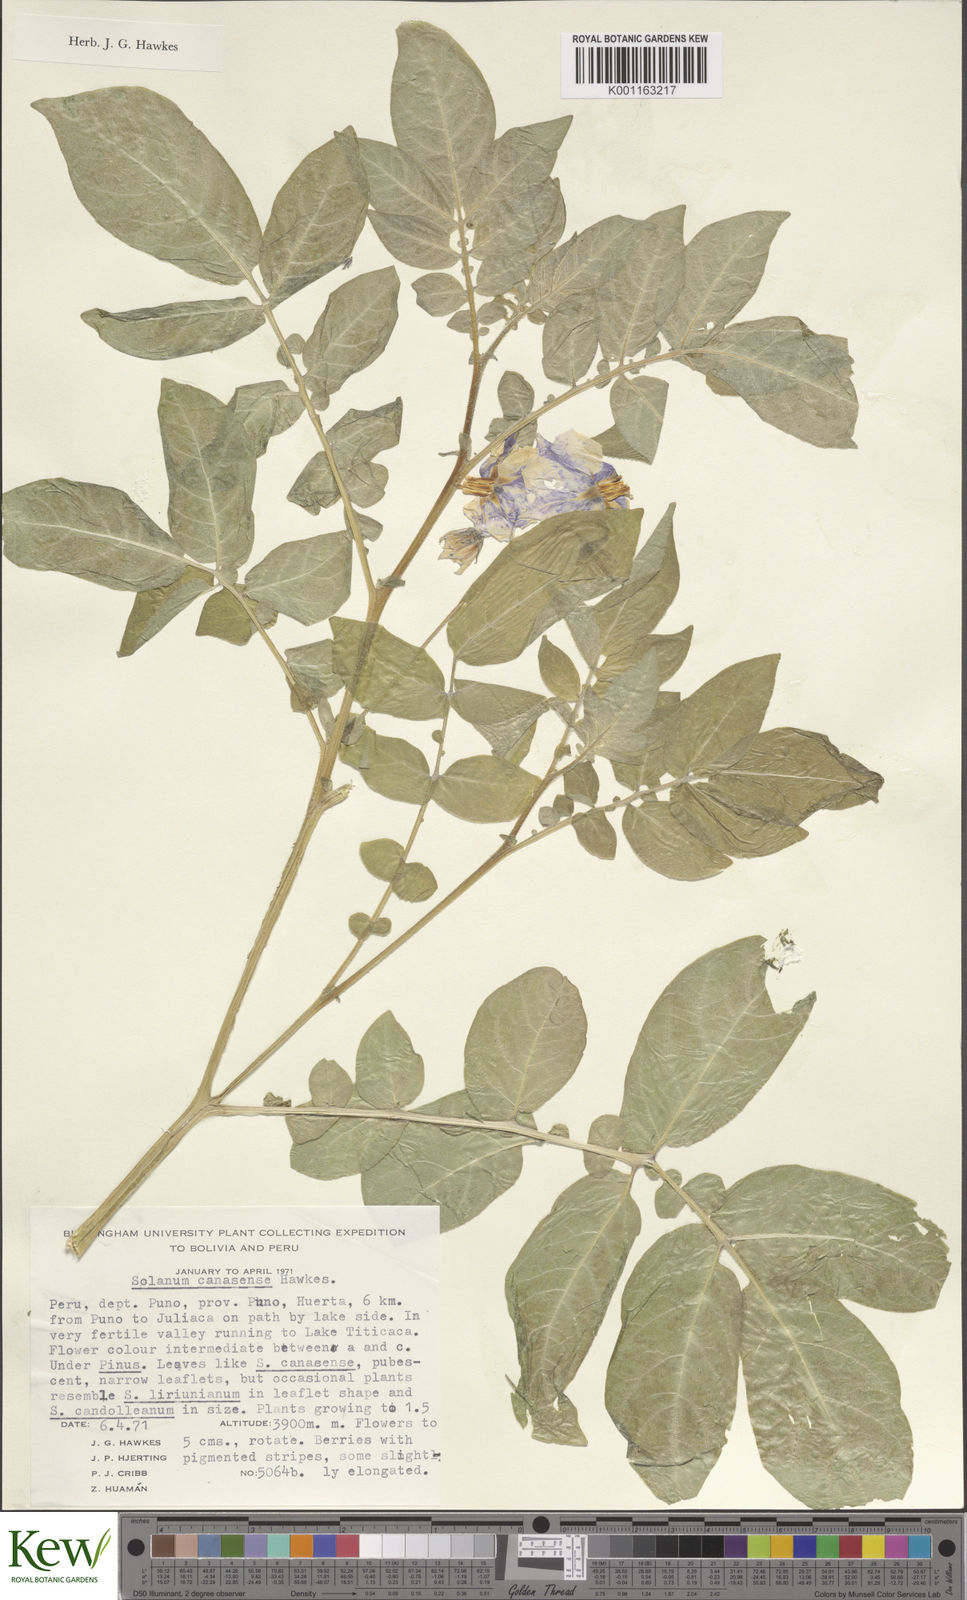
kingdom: Plantae
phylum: Tracheophyta
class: Magnoliopsida
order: Solanales
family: Solanaceae
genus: Solanum
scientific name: Solanum candolleanum
